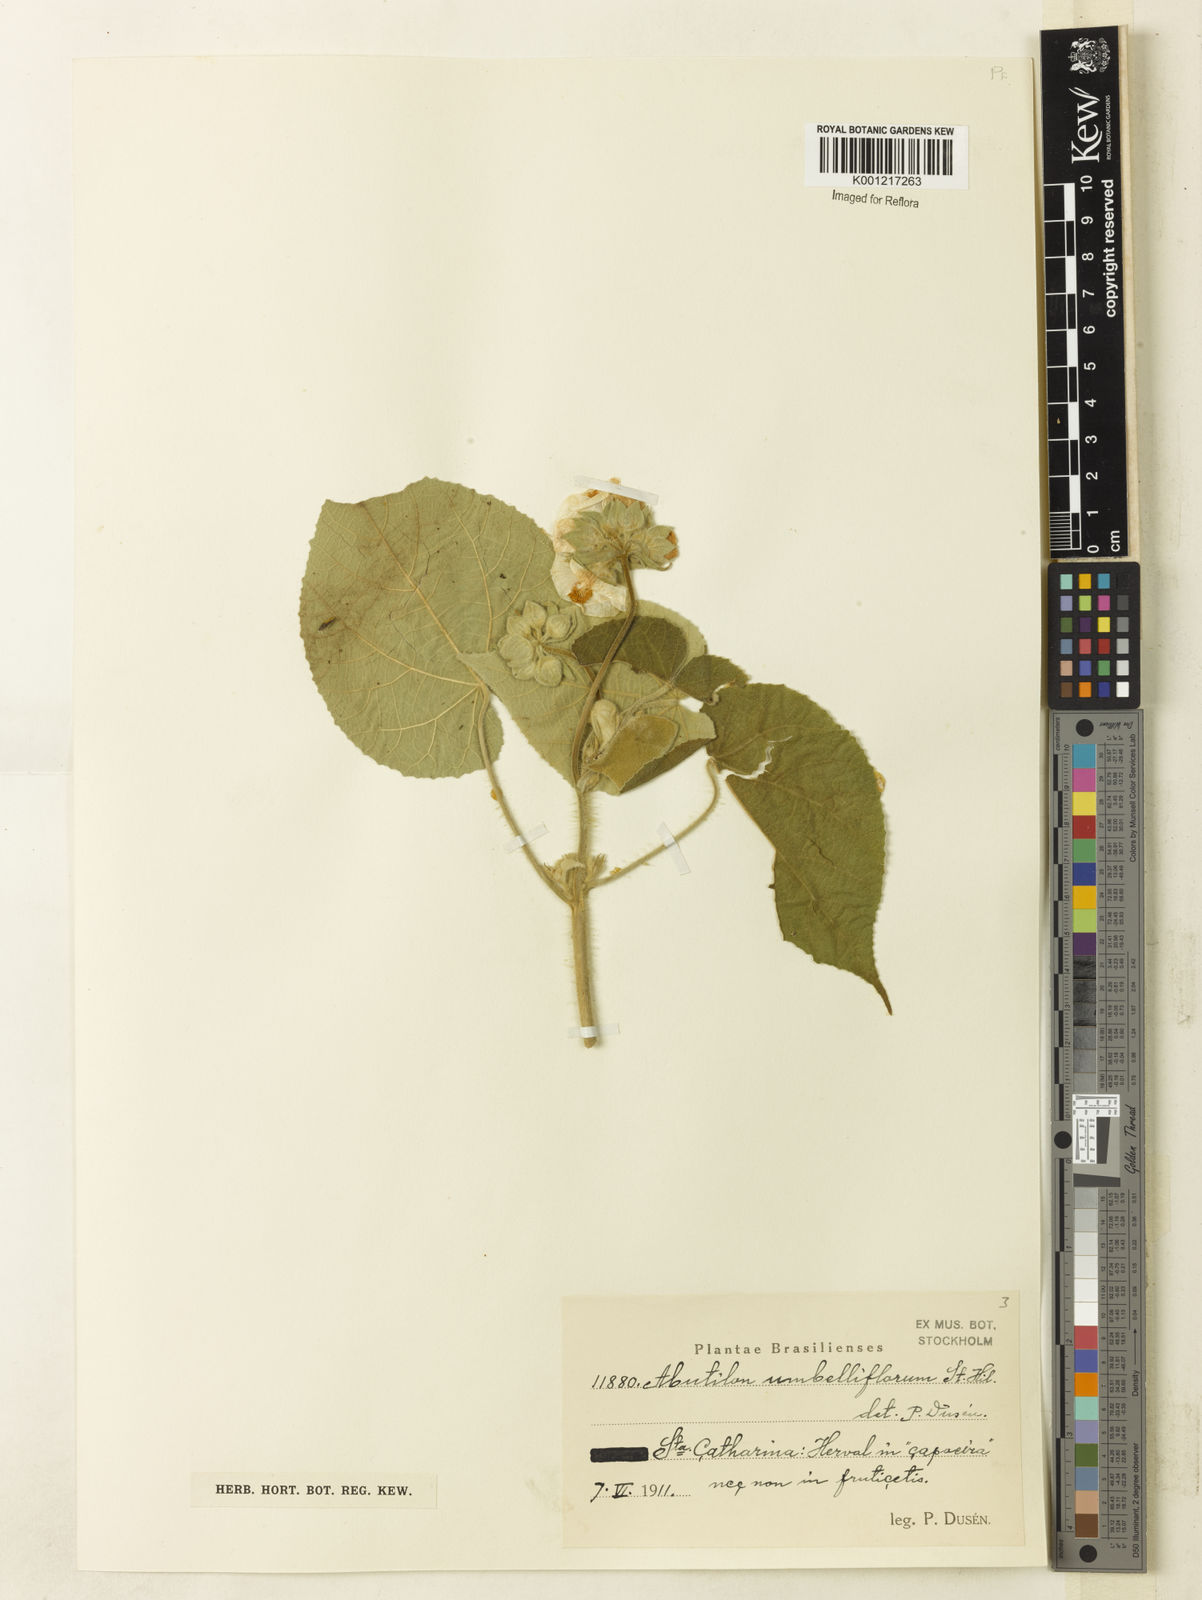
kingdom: Plantae
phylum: Tracheophyta
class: Magnoliopsida
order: Malvales
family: Malvaceae
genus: Abutilon
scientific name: Abutilon umbelliflorum
